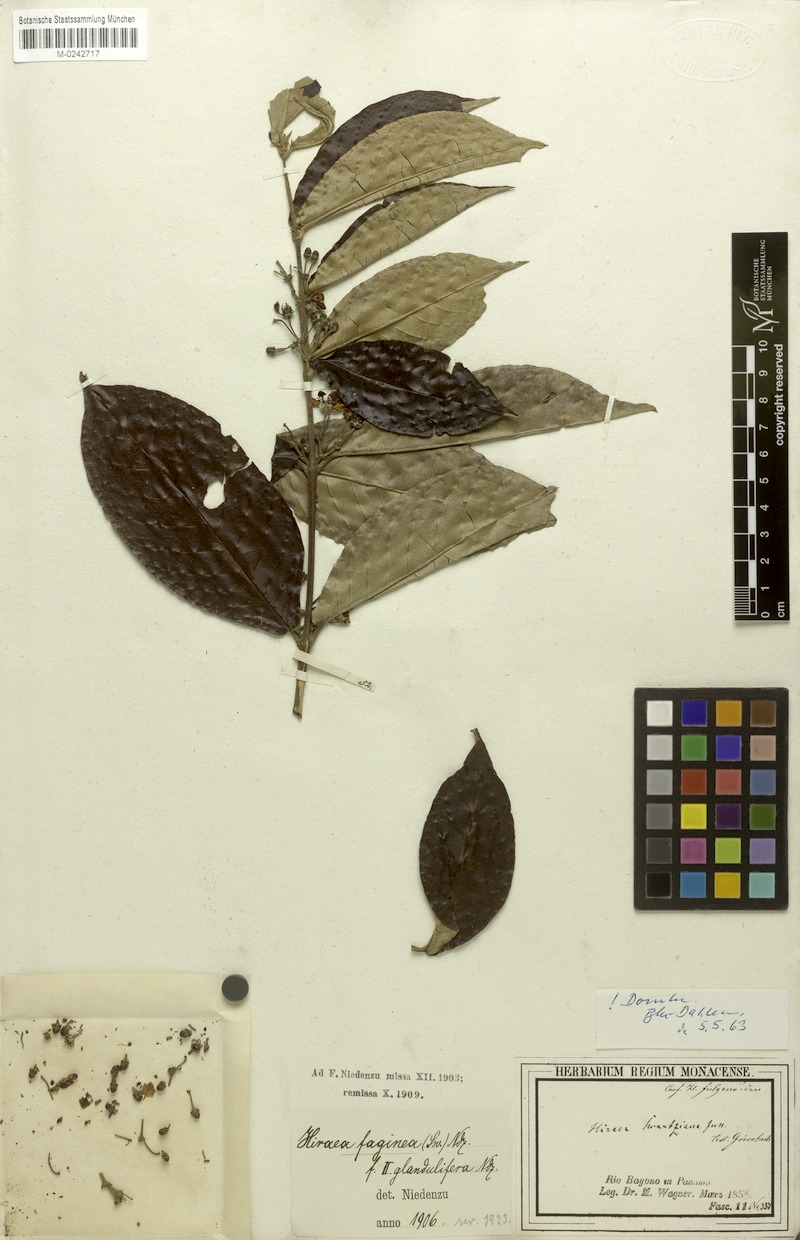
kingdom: Plantae
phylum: Tracheophyta
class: Magnoliopsida
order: Malpighiales
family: Malpighiaceae
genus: Hiraea
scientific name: Hiraea faginea
